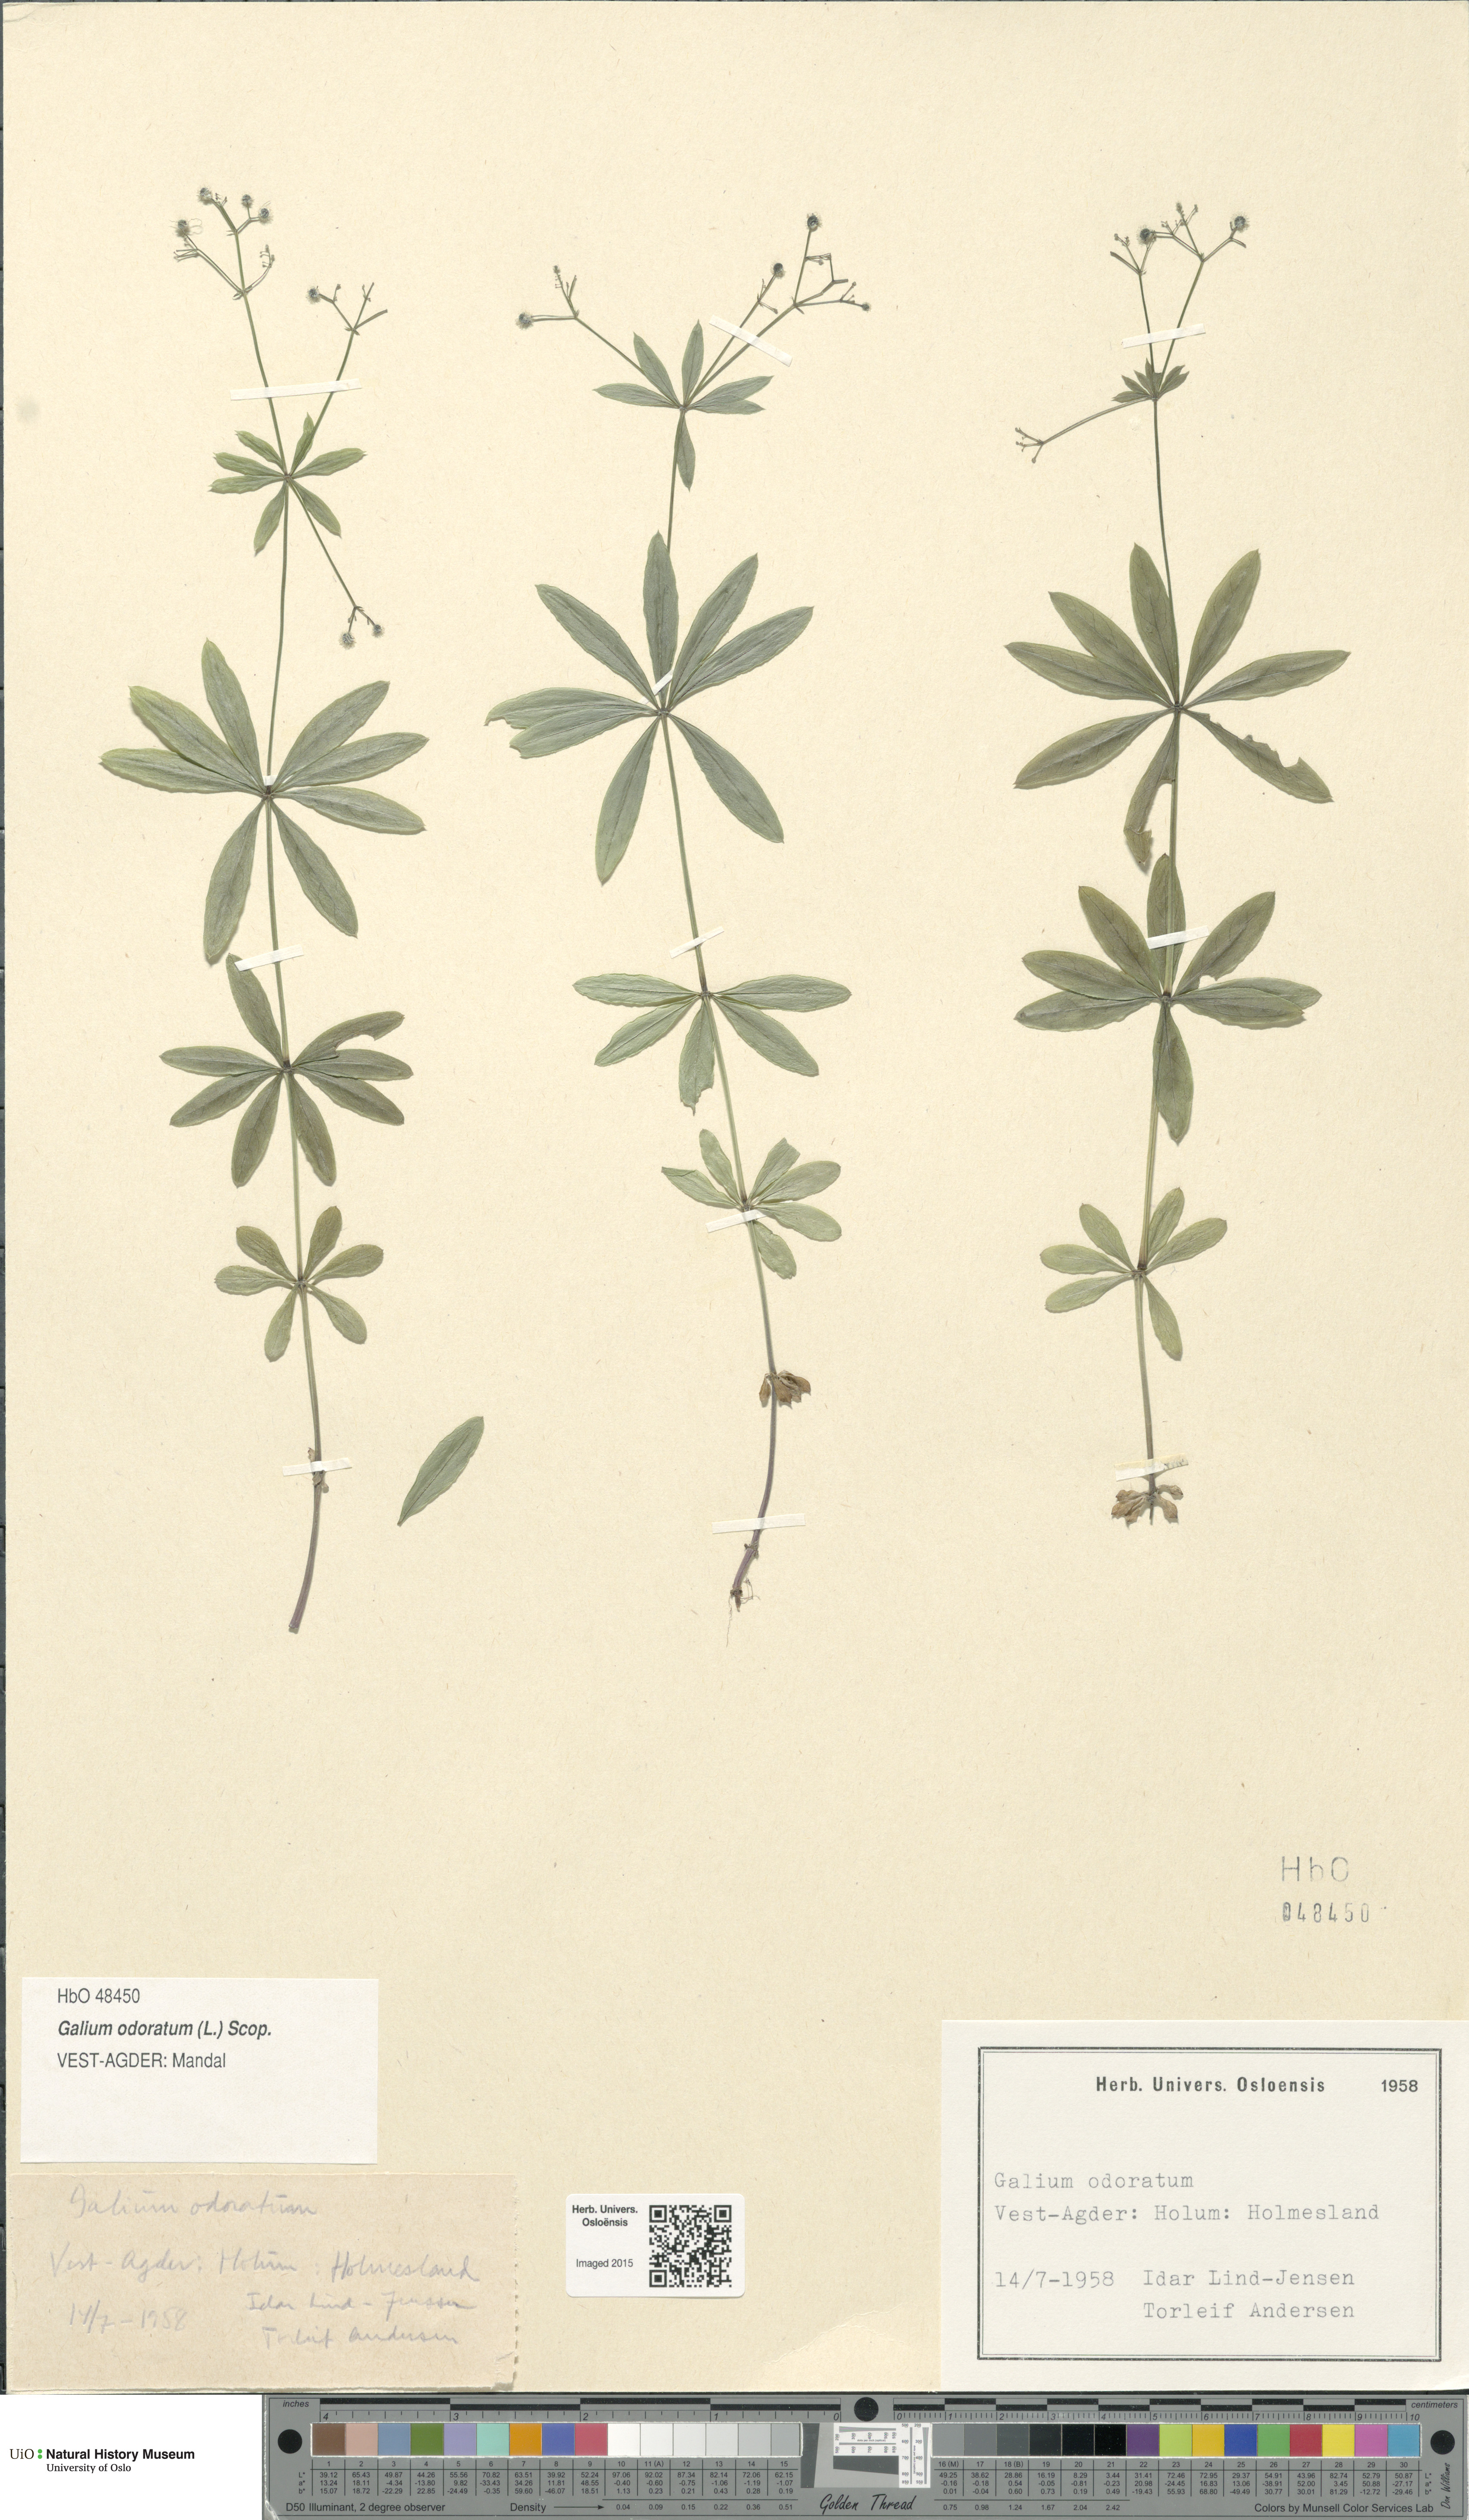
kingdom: Plantae
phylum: Tracheophyta
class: Magnoliopsida
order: Gentianales
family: Rubiaceae
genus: Galium
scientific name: Galium odoratum
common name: Sweet woodruff
